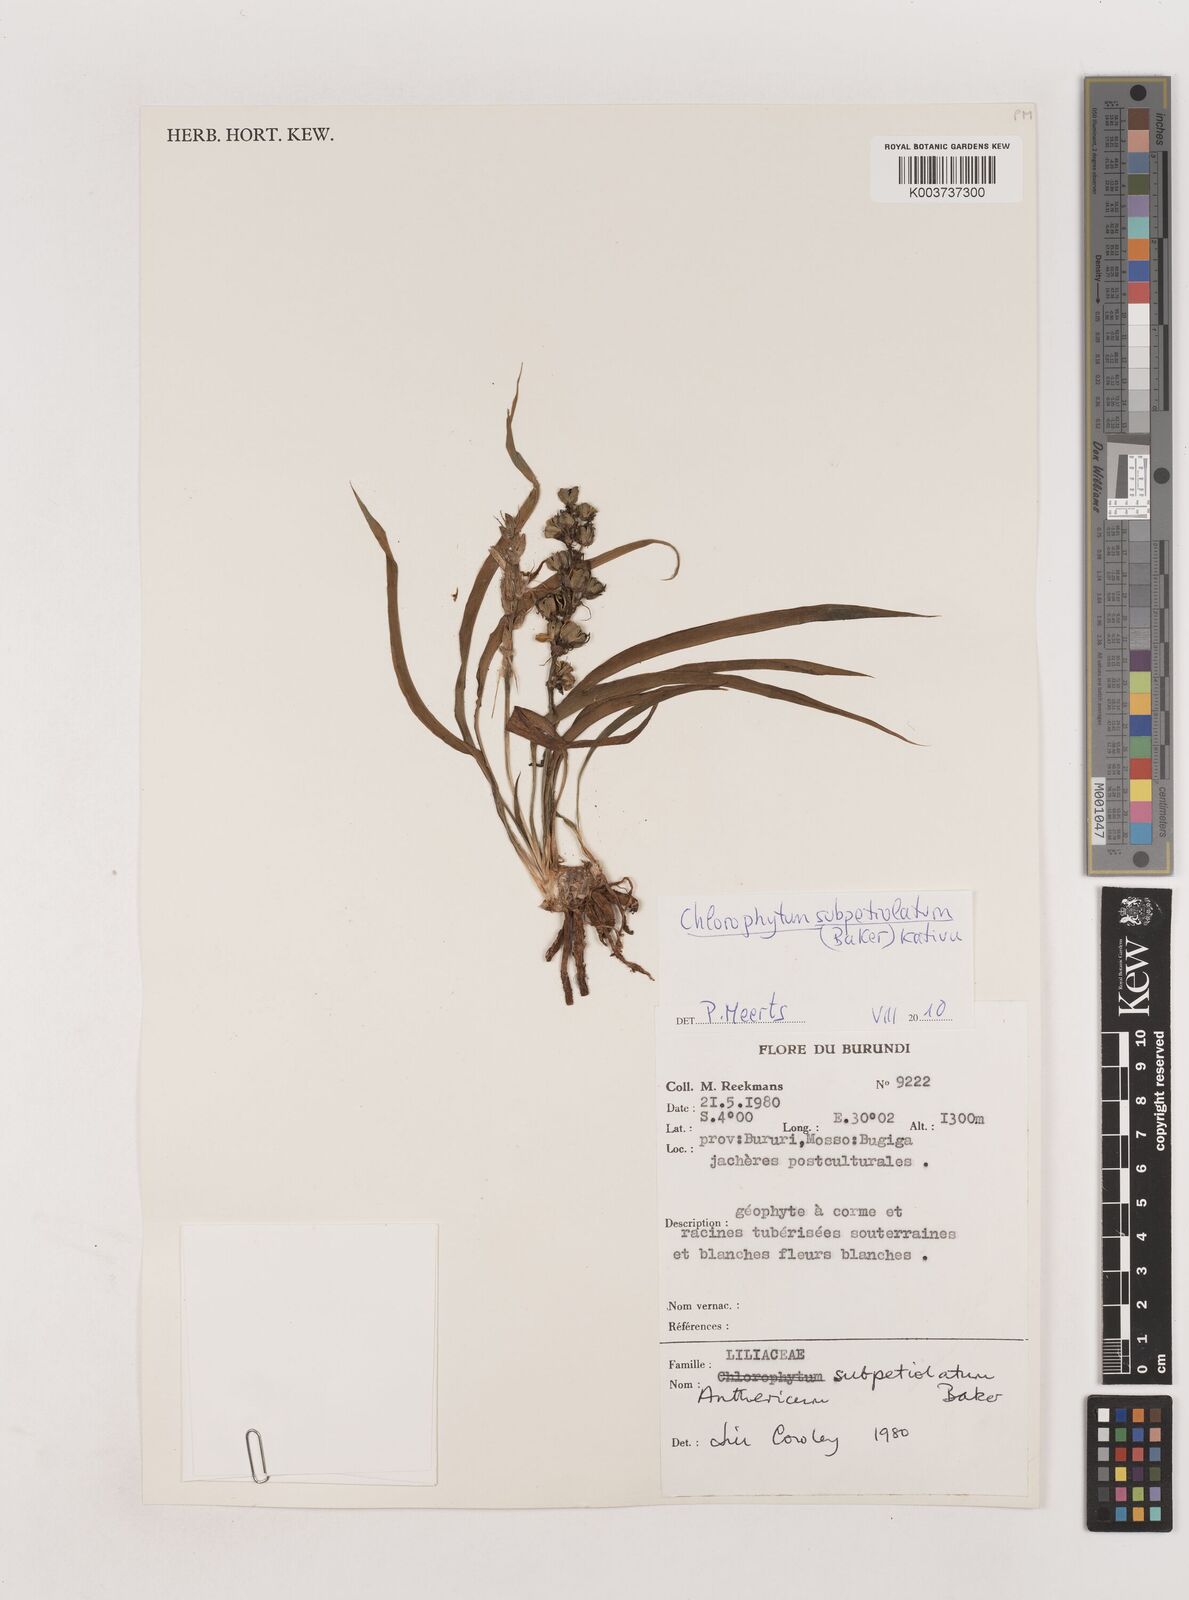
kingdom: Plantae
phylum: Tracheophyta
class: Liliopsida
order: Asparagales
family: Asparagaceae
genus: Chlorophytum
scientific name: Chlorophytum subpetiolatum
